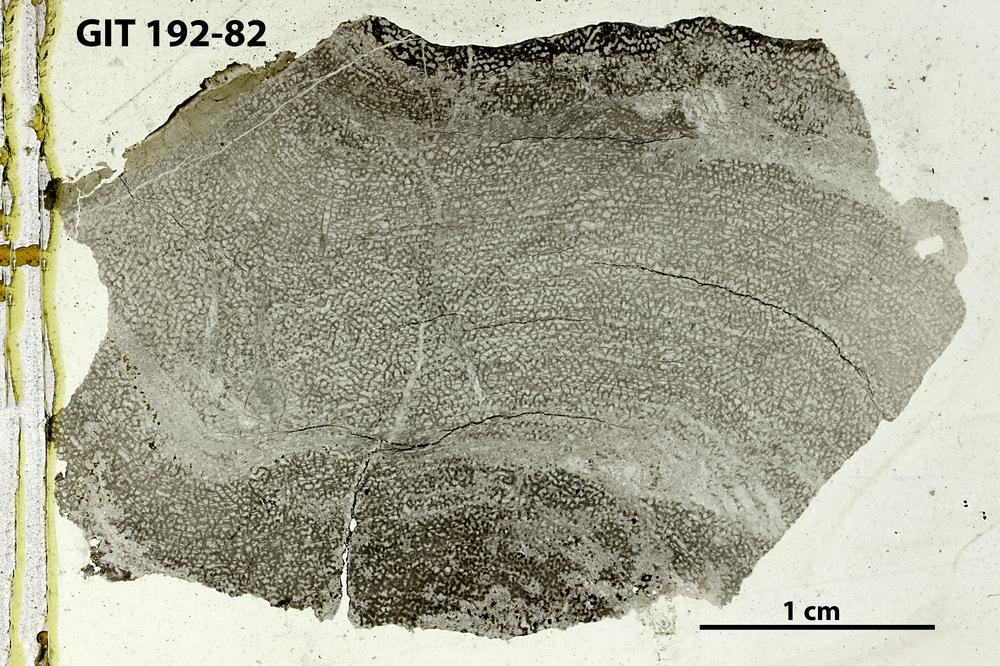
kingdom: Animalia
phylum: Porifera
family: Ecclimadictyidae
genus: Ecclimadictyon
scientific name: Ecclimadictyon
